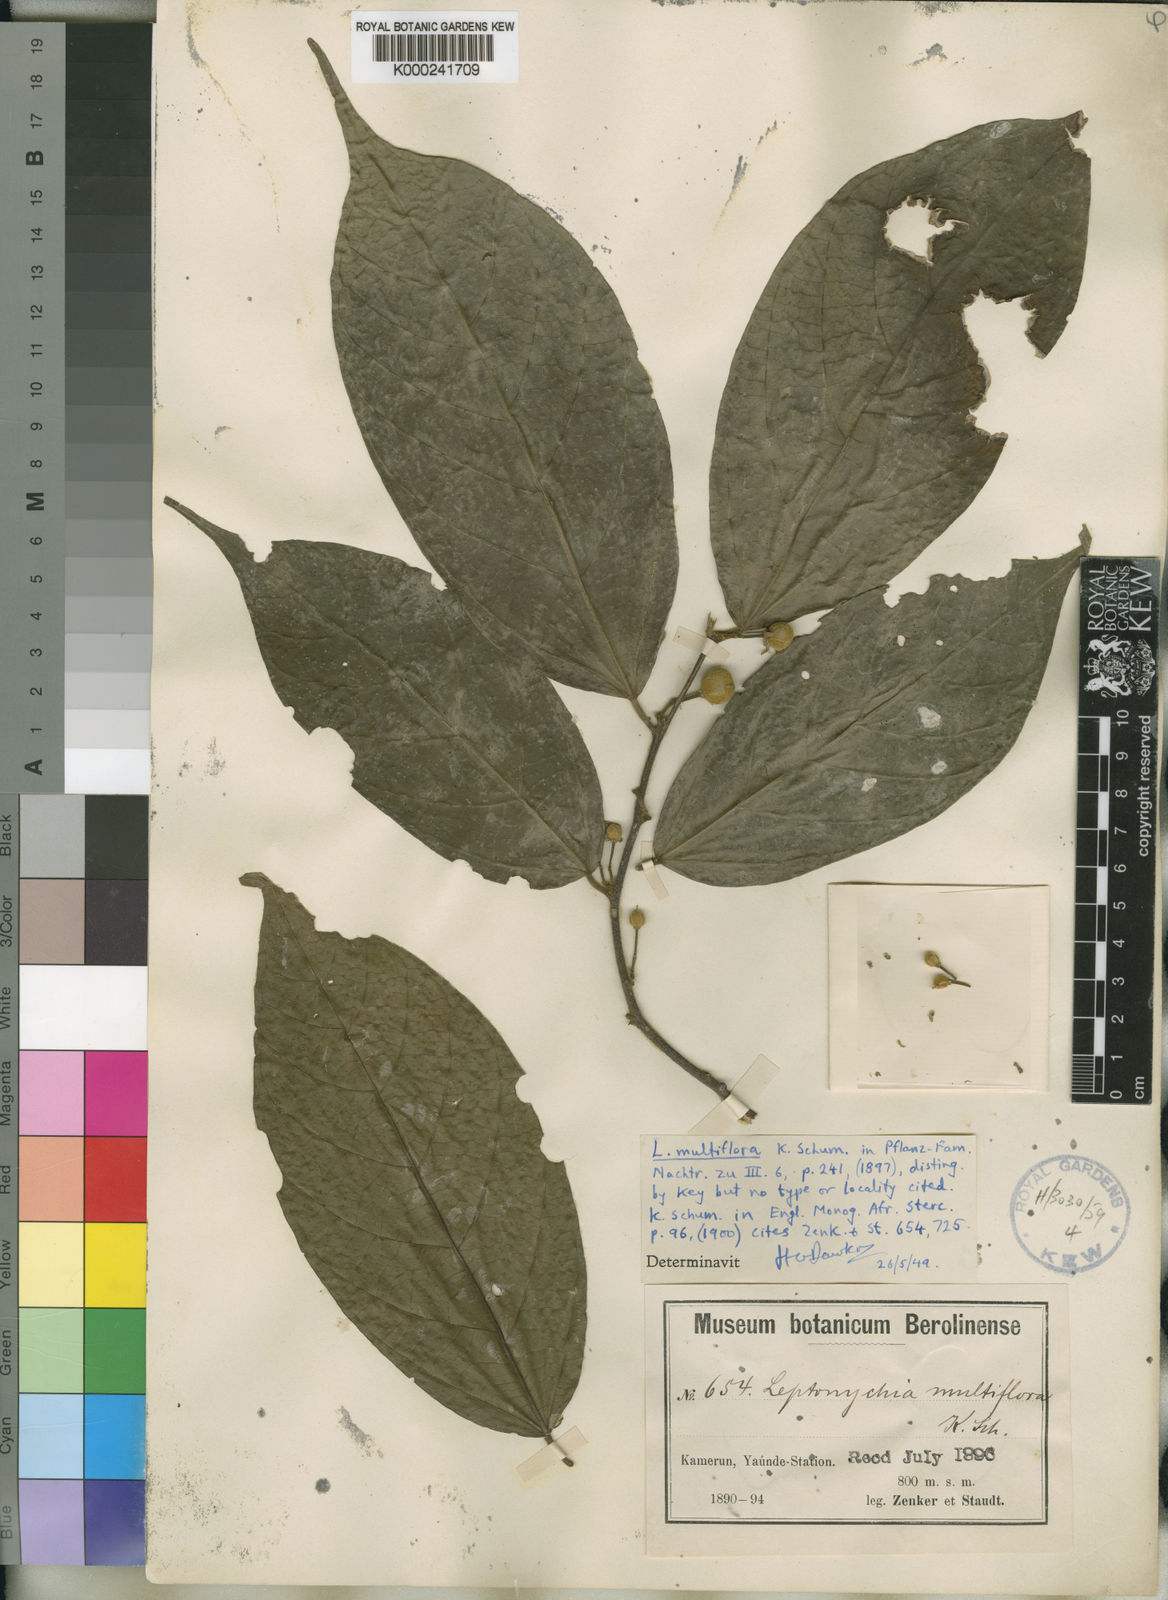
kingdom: Plantae
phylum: Tracheophyta
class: Magnoliopsida
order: Malvales
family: Malvaceae
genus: Leptonychia
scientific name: Leptonychia multiflora
